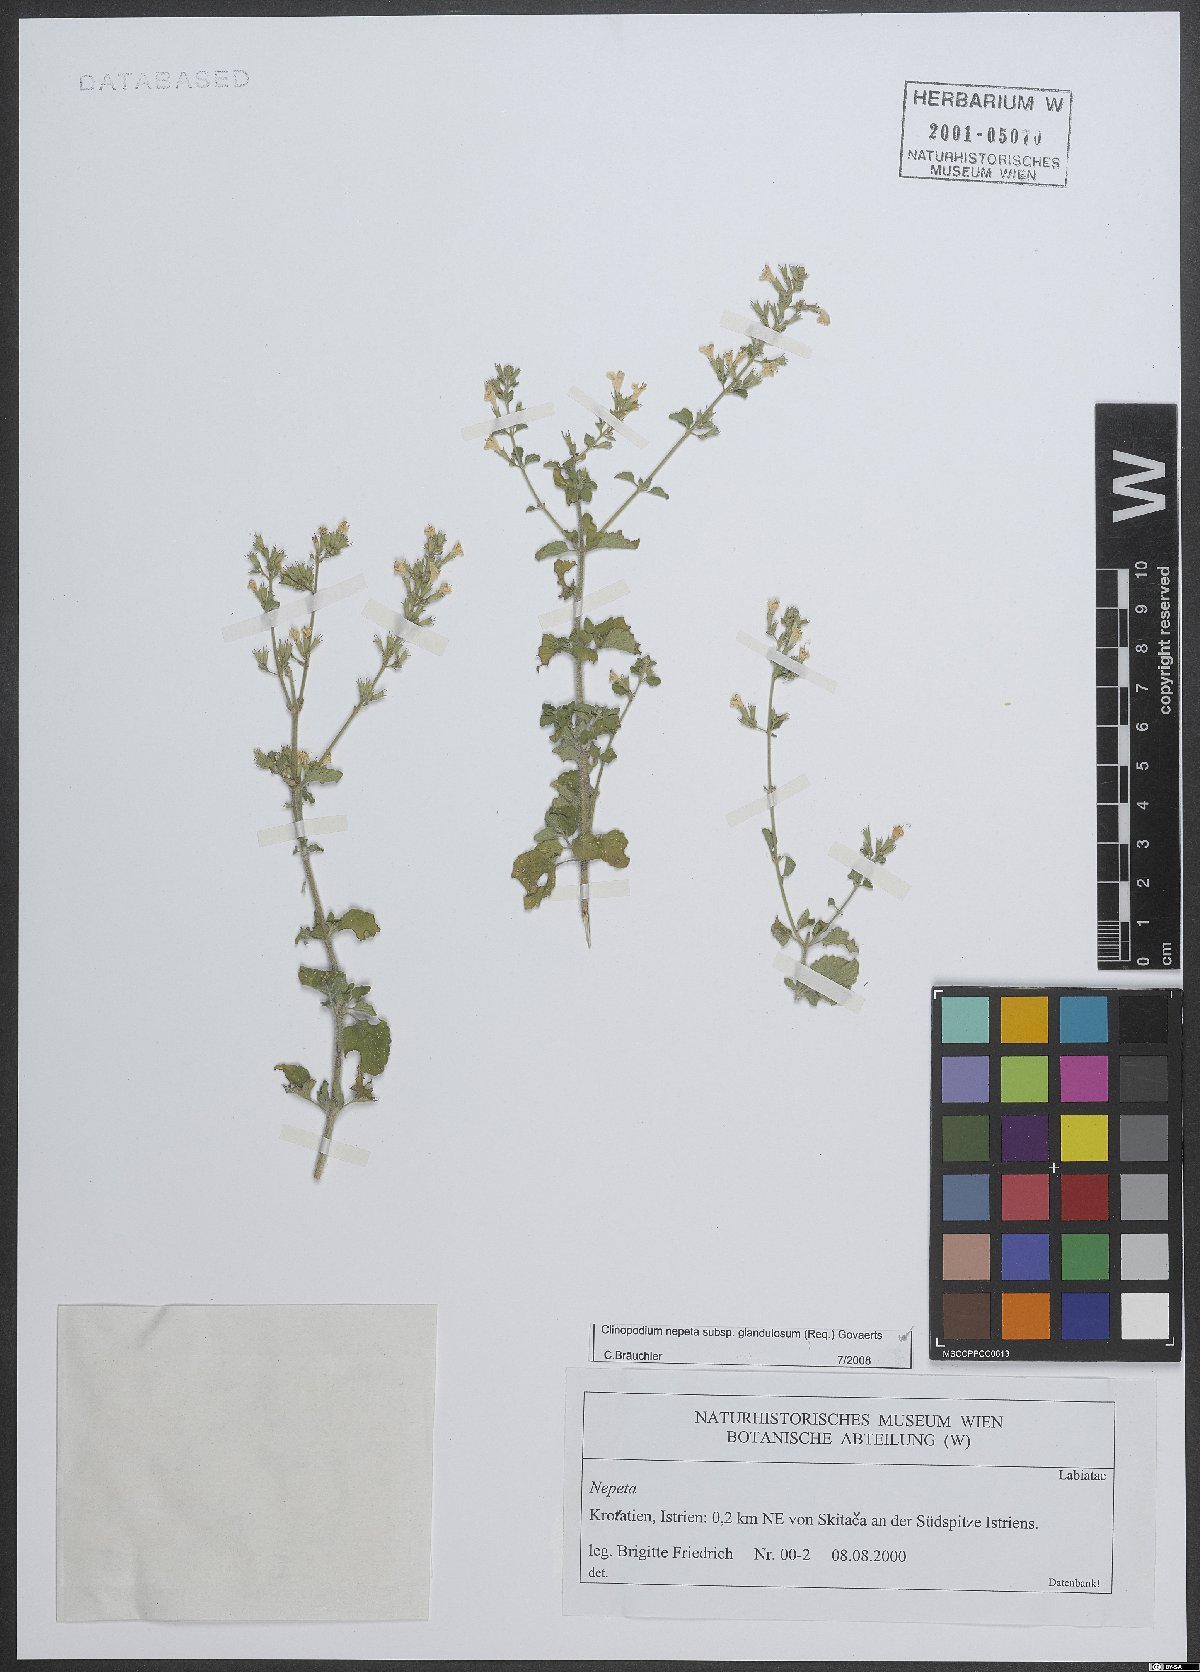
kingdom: Plantae
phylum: Tracheophyta
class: Magnoliopsida
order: Lamiales
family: Lamiaceae
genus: Clinopodium
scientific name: Clinopodium nepeta
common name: Lesser calamint
